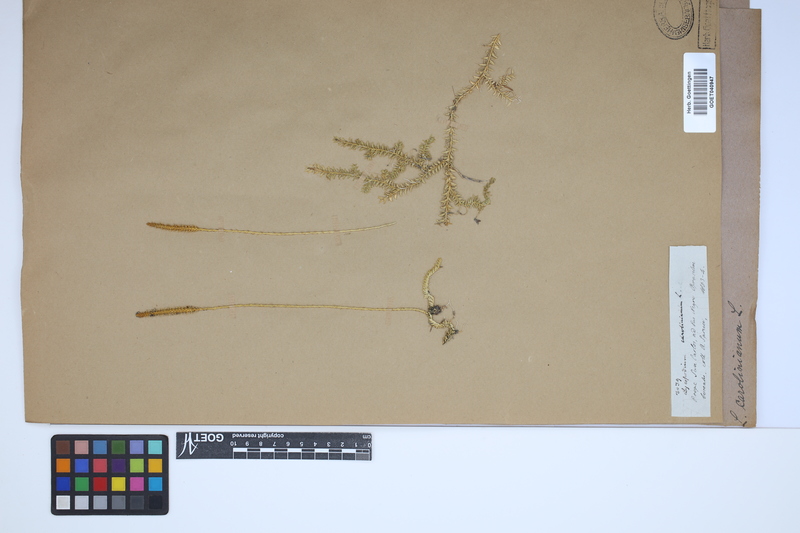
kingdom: Plantae
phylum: Tracheophyta
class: Lycopodiopsida
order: Lycopodiales
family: Lycopodiaceae
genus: Brownseya
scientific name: Brownseya serpentina
